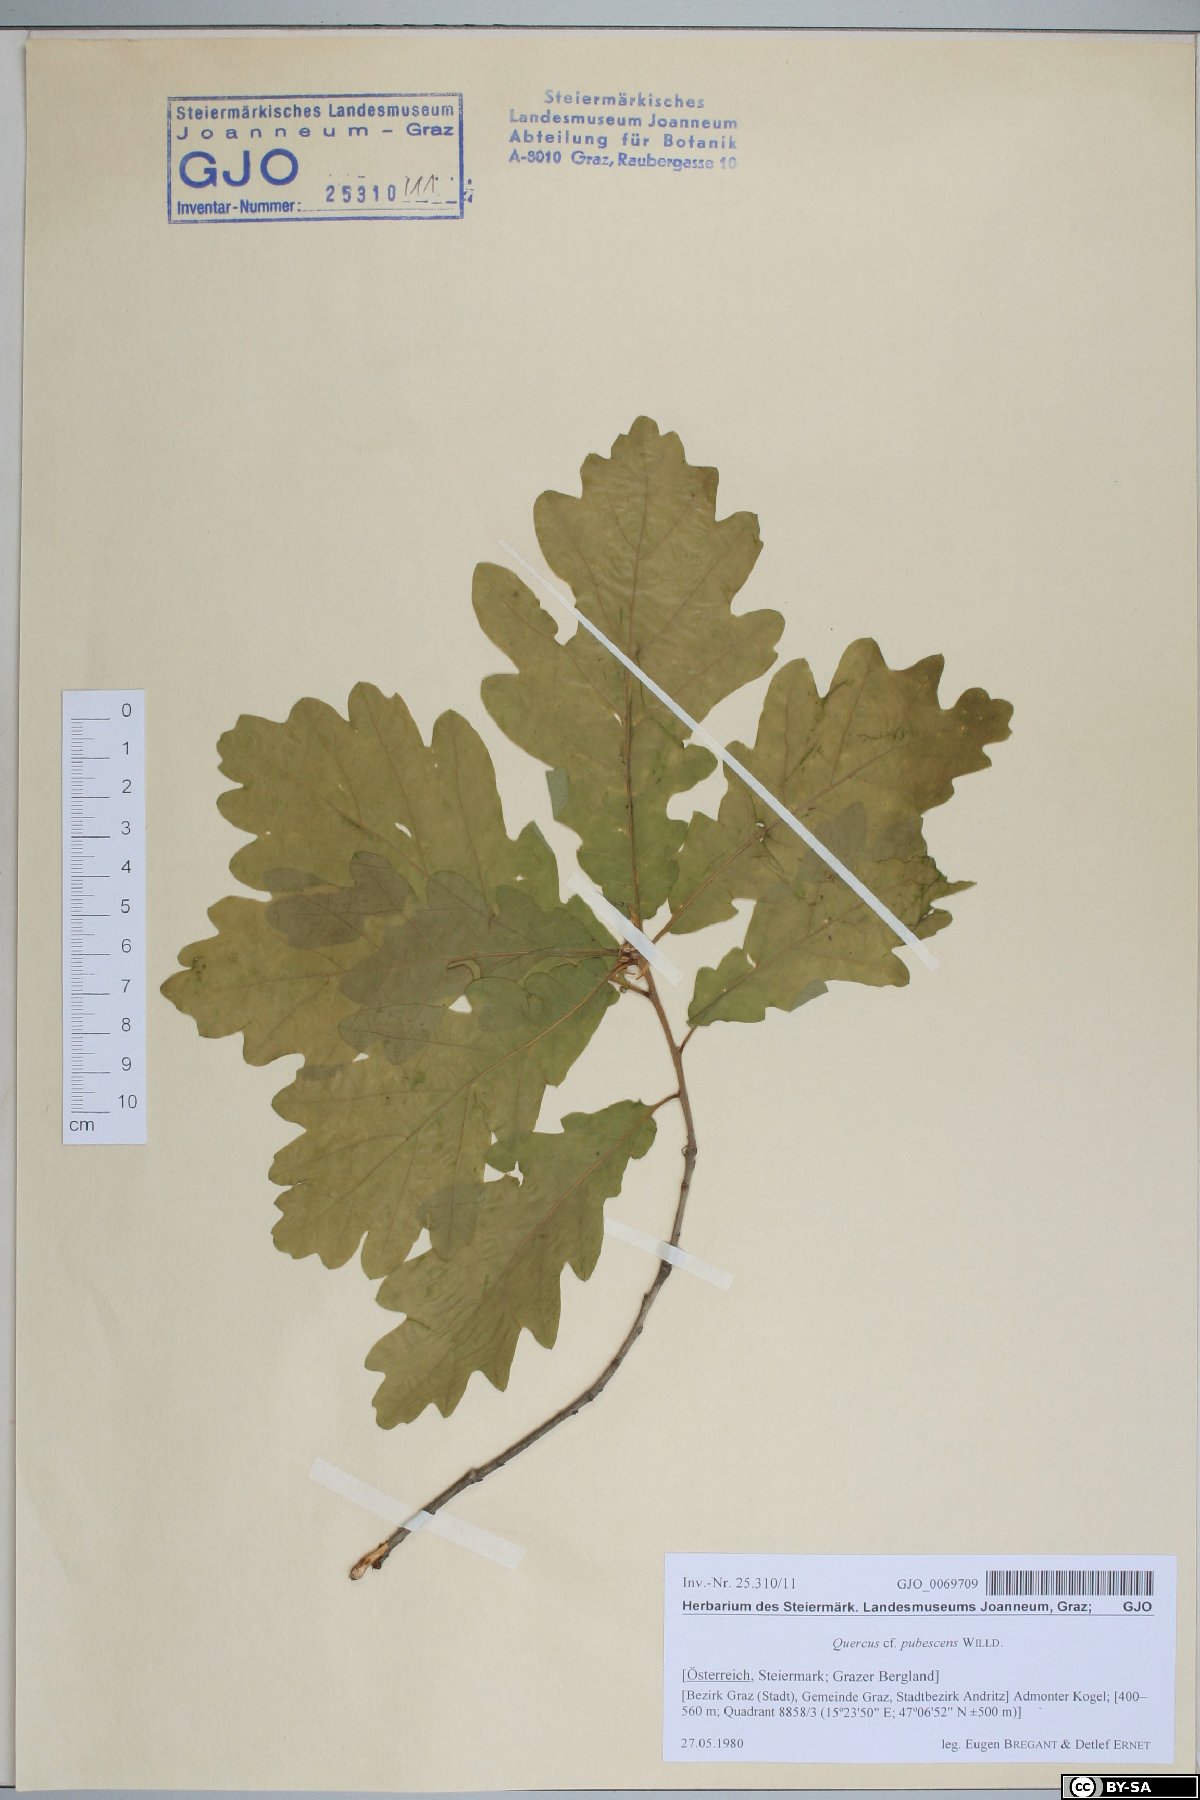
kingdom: Plantae
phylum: Tracheophyta
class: Magnoliopsida
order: Fagales
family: Fagaceae
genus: Quercus
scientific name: Quercus pubescens
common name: Downy oak
